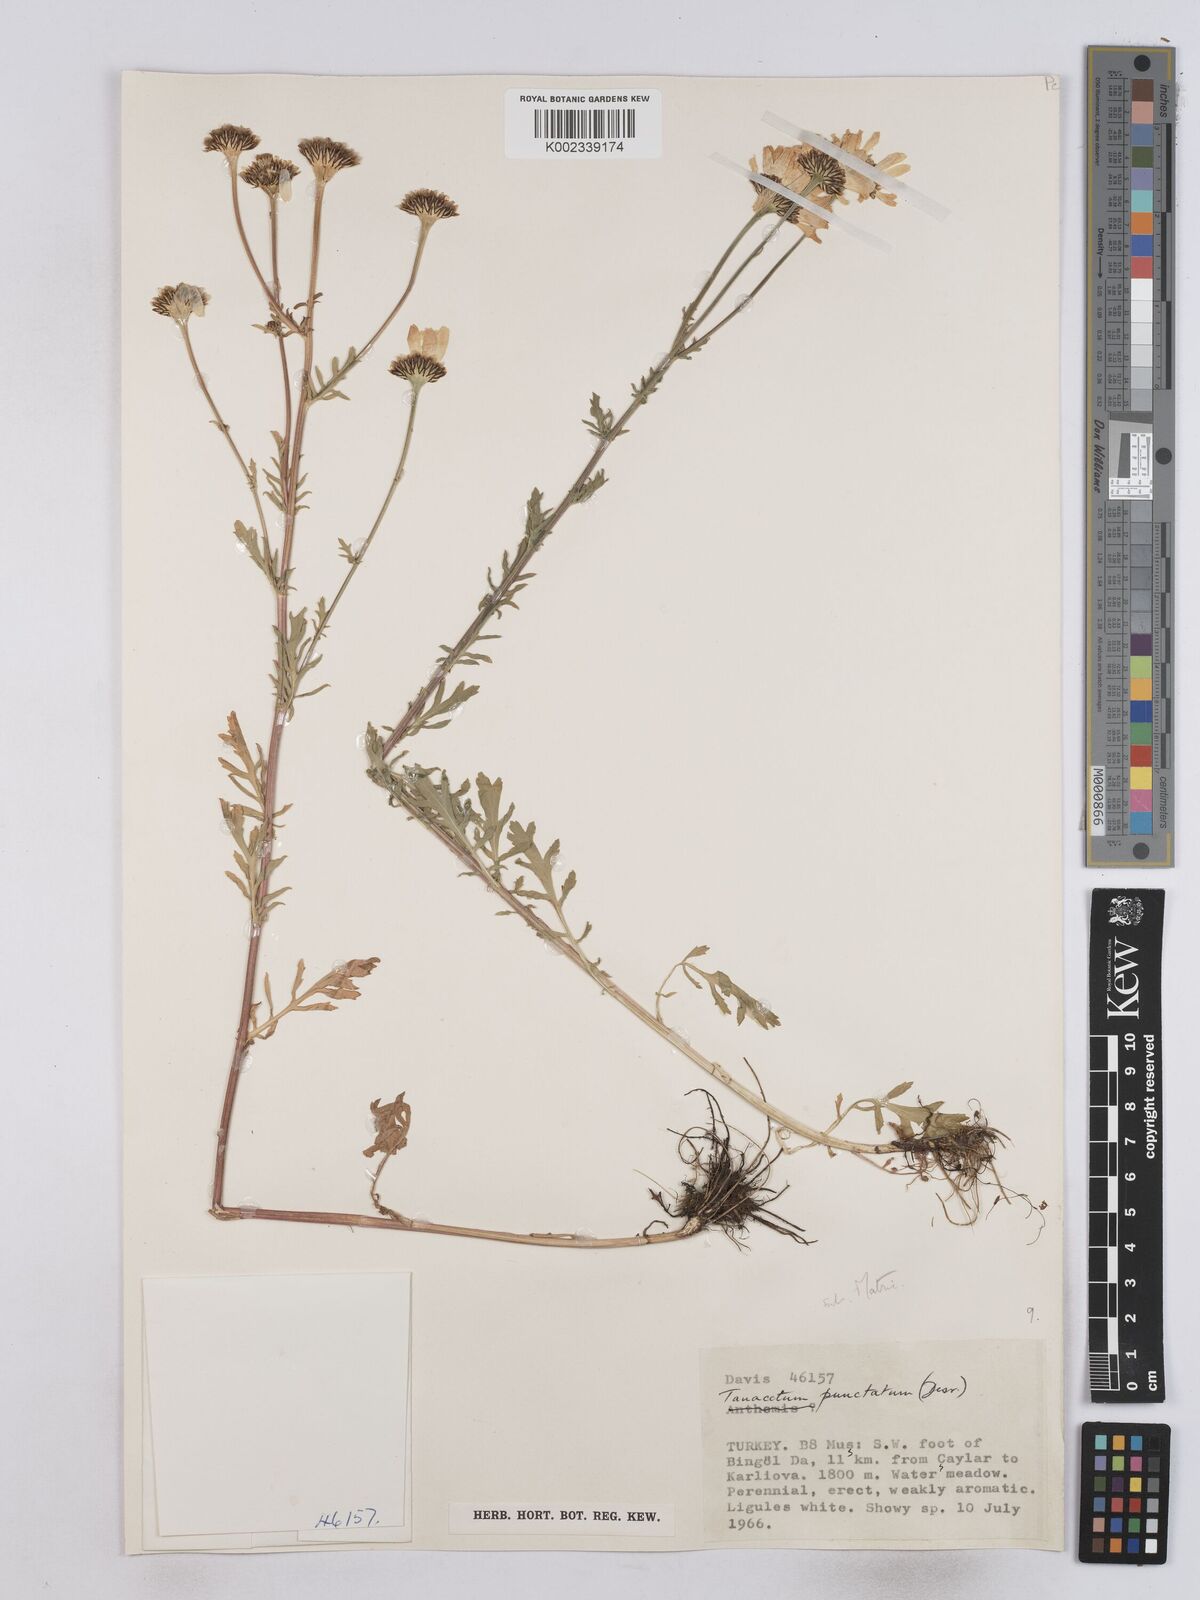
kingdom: Plantae
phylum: Tracheophyta
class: Magnoliopsida
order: Asterales
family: Asteraceae
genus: Tanacetum
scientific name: Tanacetum punctatum
